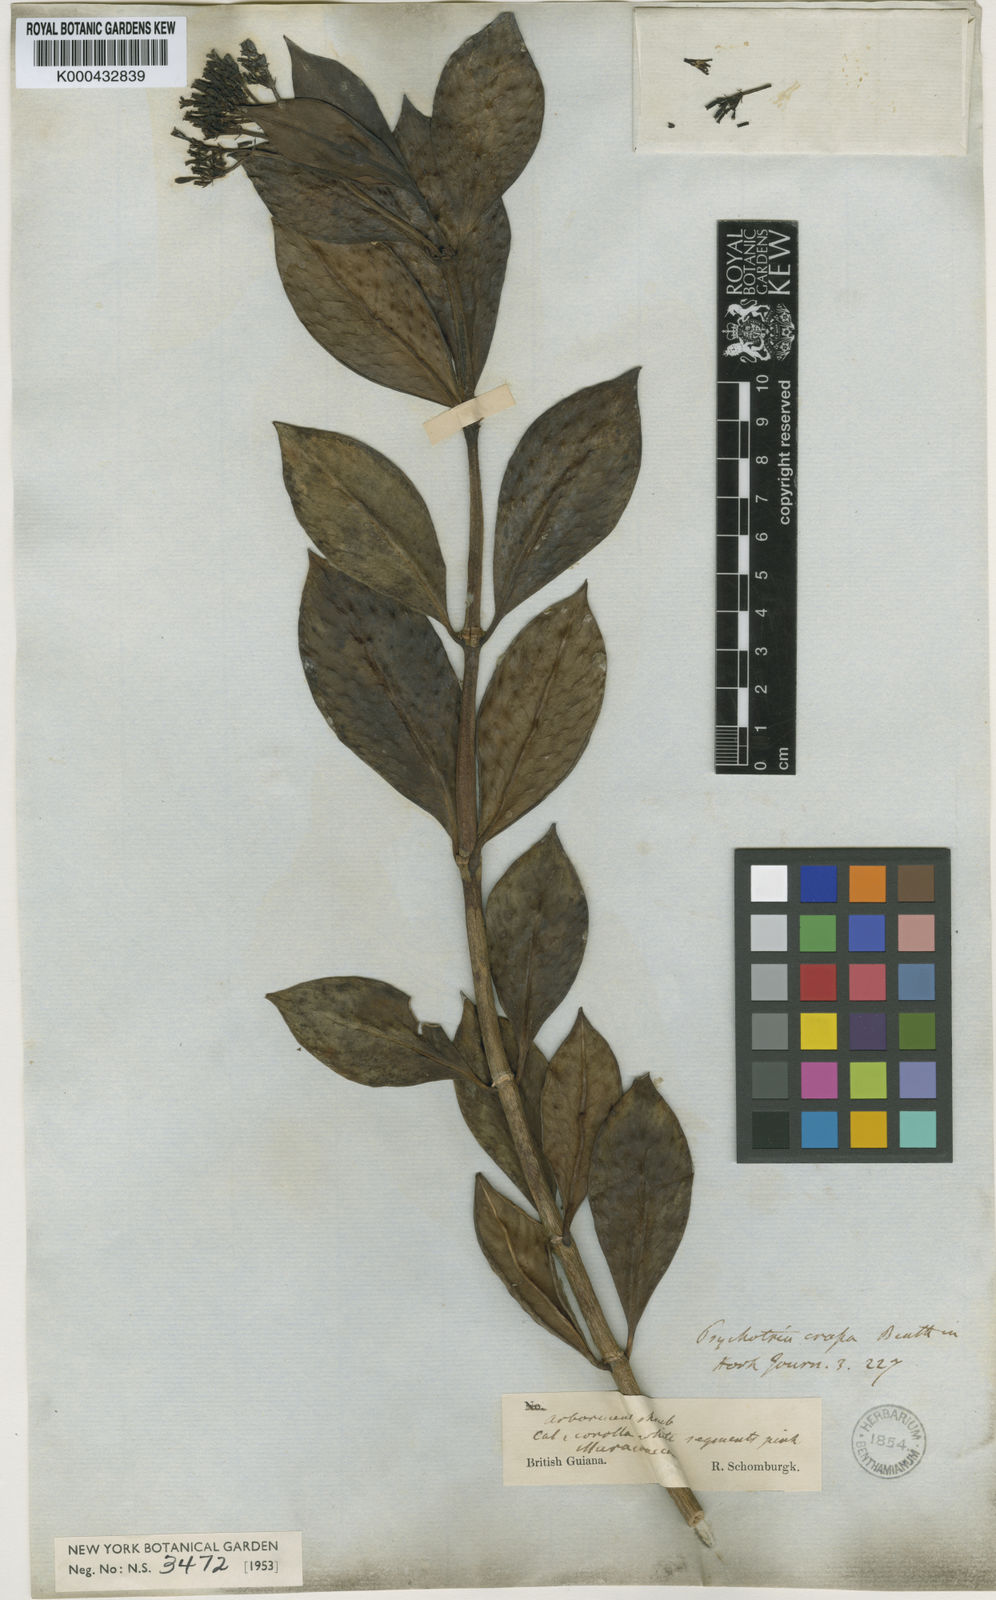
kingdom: Plantae
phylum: Tracheophyta
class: Magnoliopsida
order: Gentianales
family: Rubiaceae
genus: Notopleura
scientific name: Notopleura crassa
